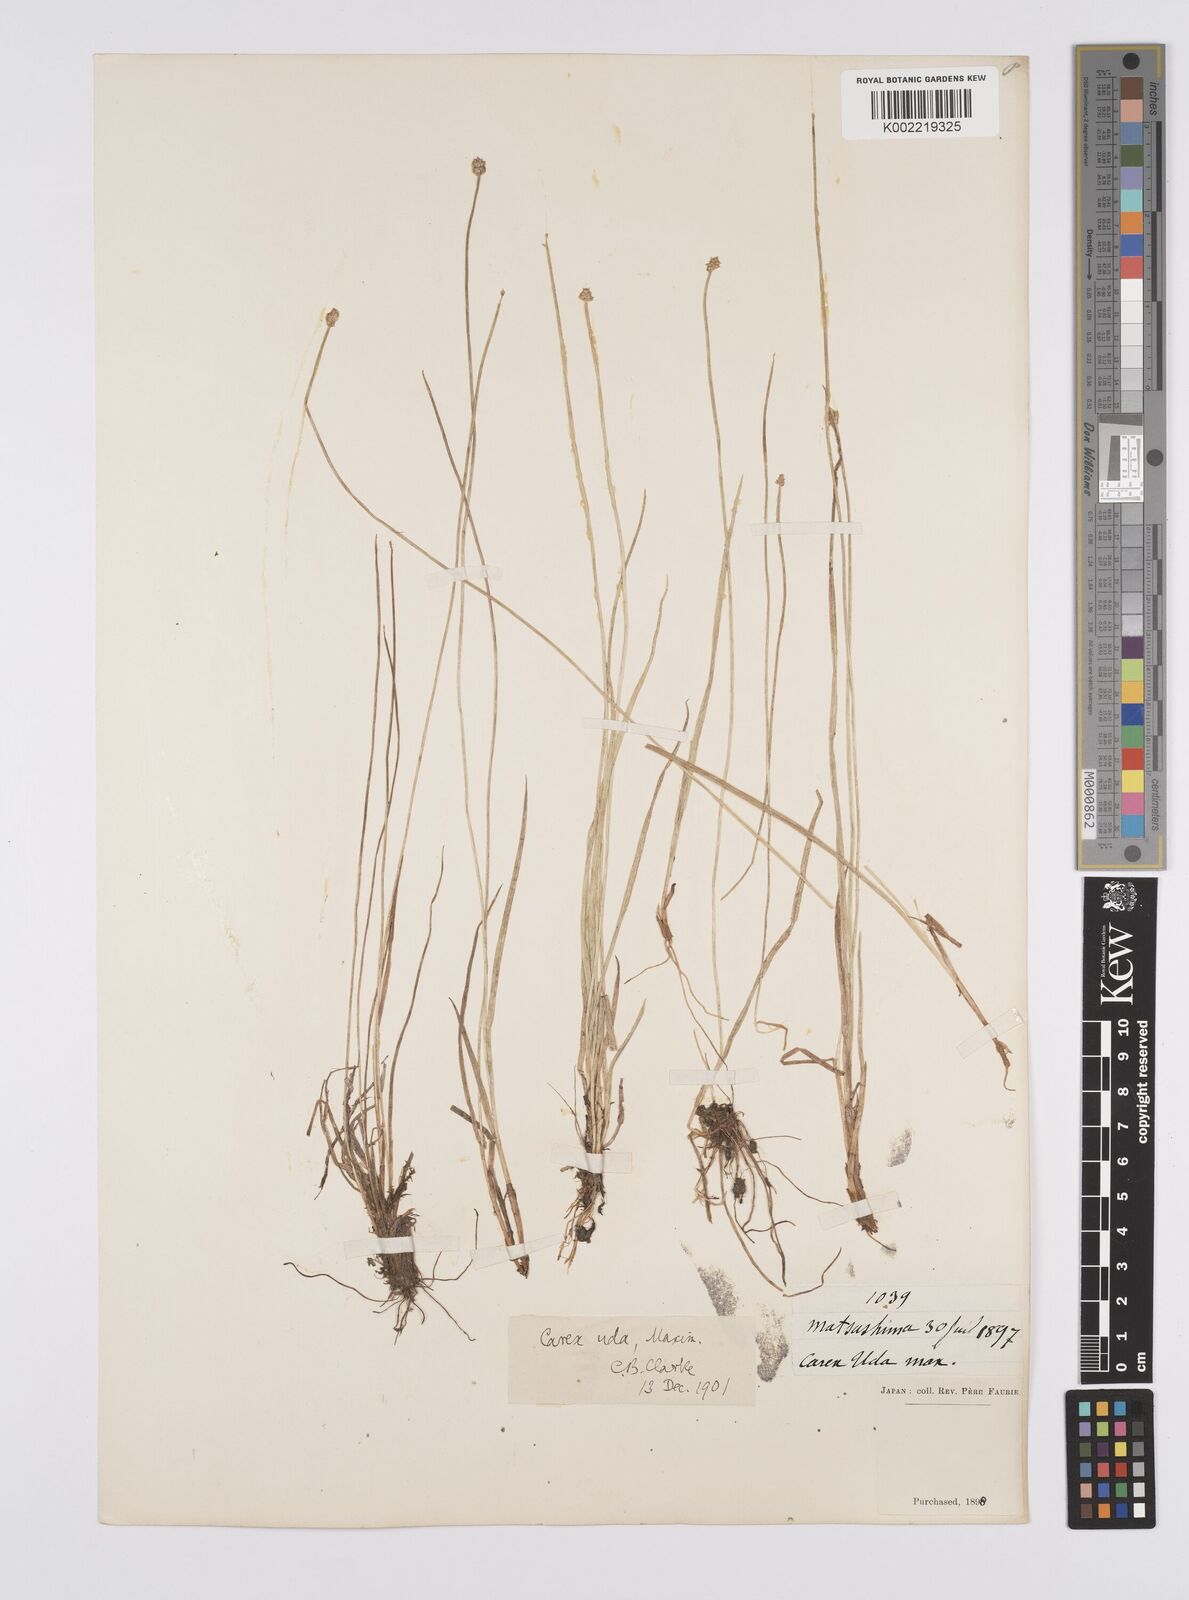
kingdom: Plantae
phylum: Tracheophyta
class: Liliopsida
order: Poales
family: Cyperaceae
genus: Carex
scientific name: Carex uda
